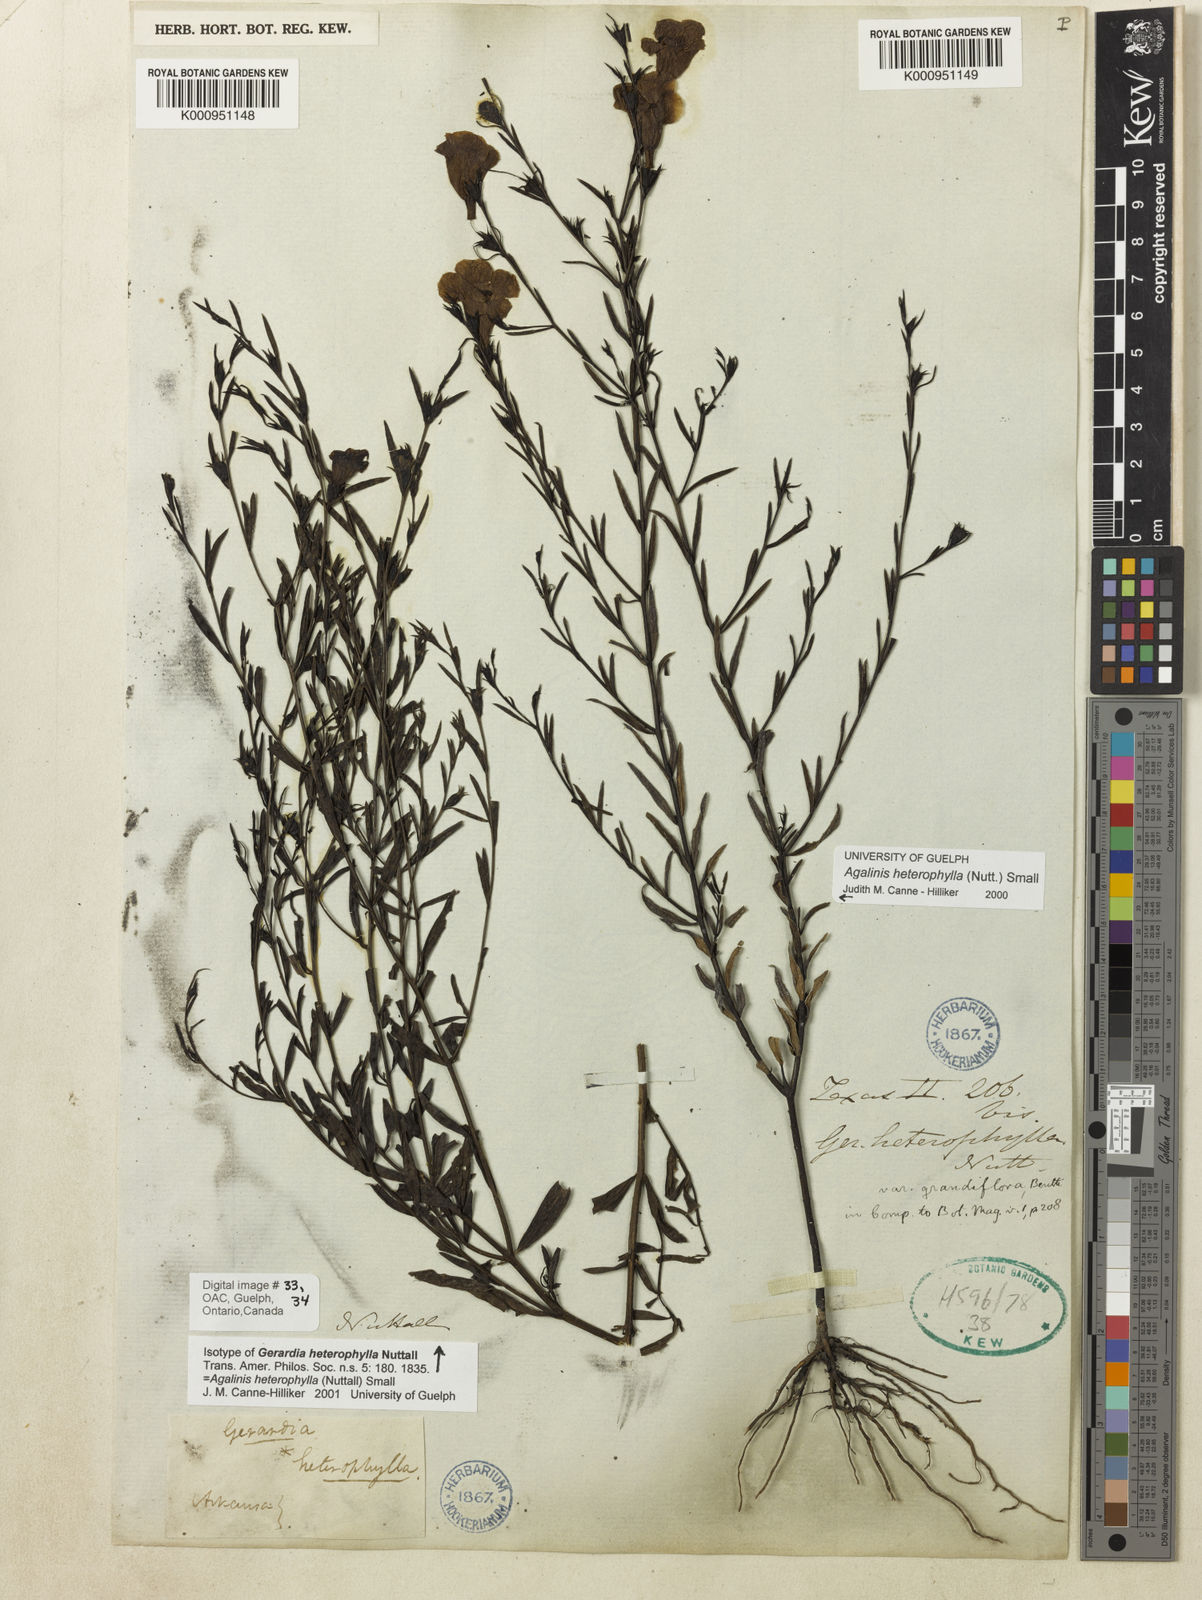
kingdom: Plantae
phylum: Tracheophyta
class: Magnoliopsida
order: Lamiales
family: Orobanchaceae
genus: Agalinis
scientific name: Agalinis heterophylla
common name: Prairie agalinis
